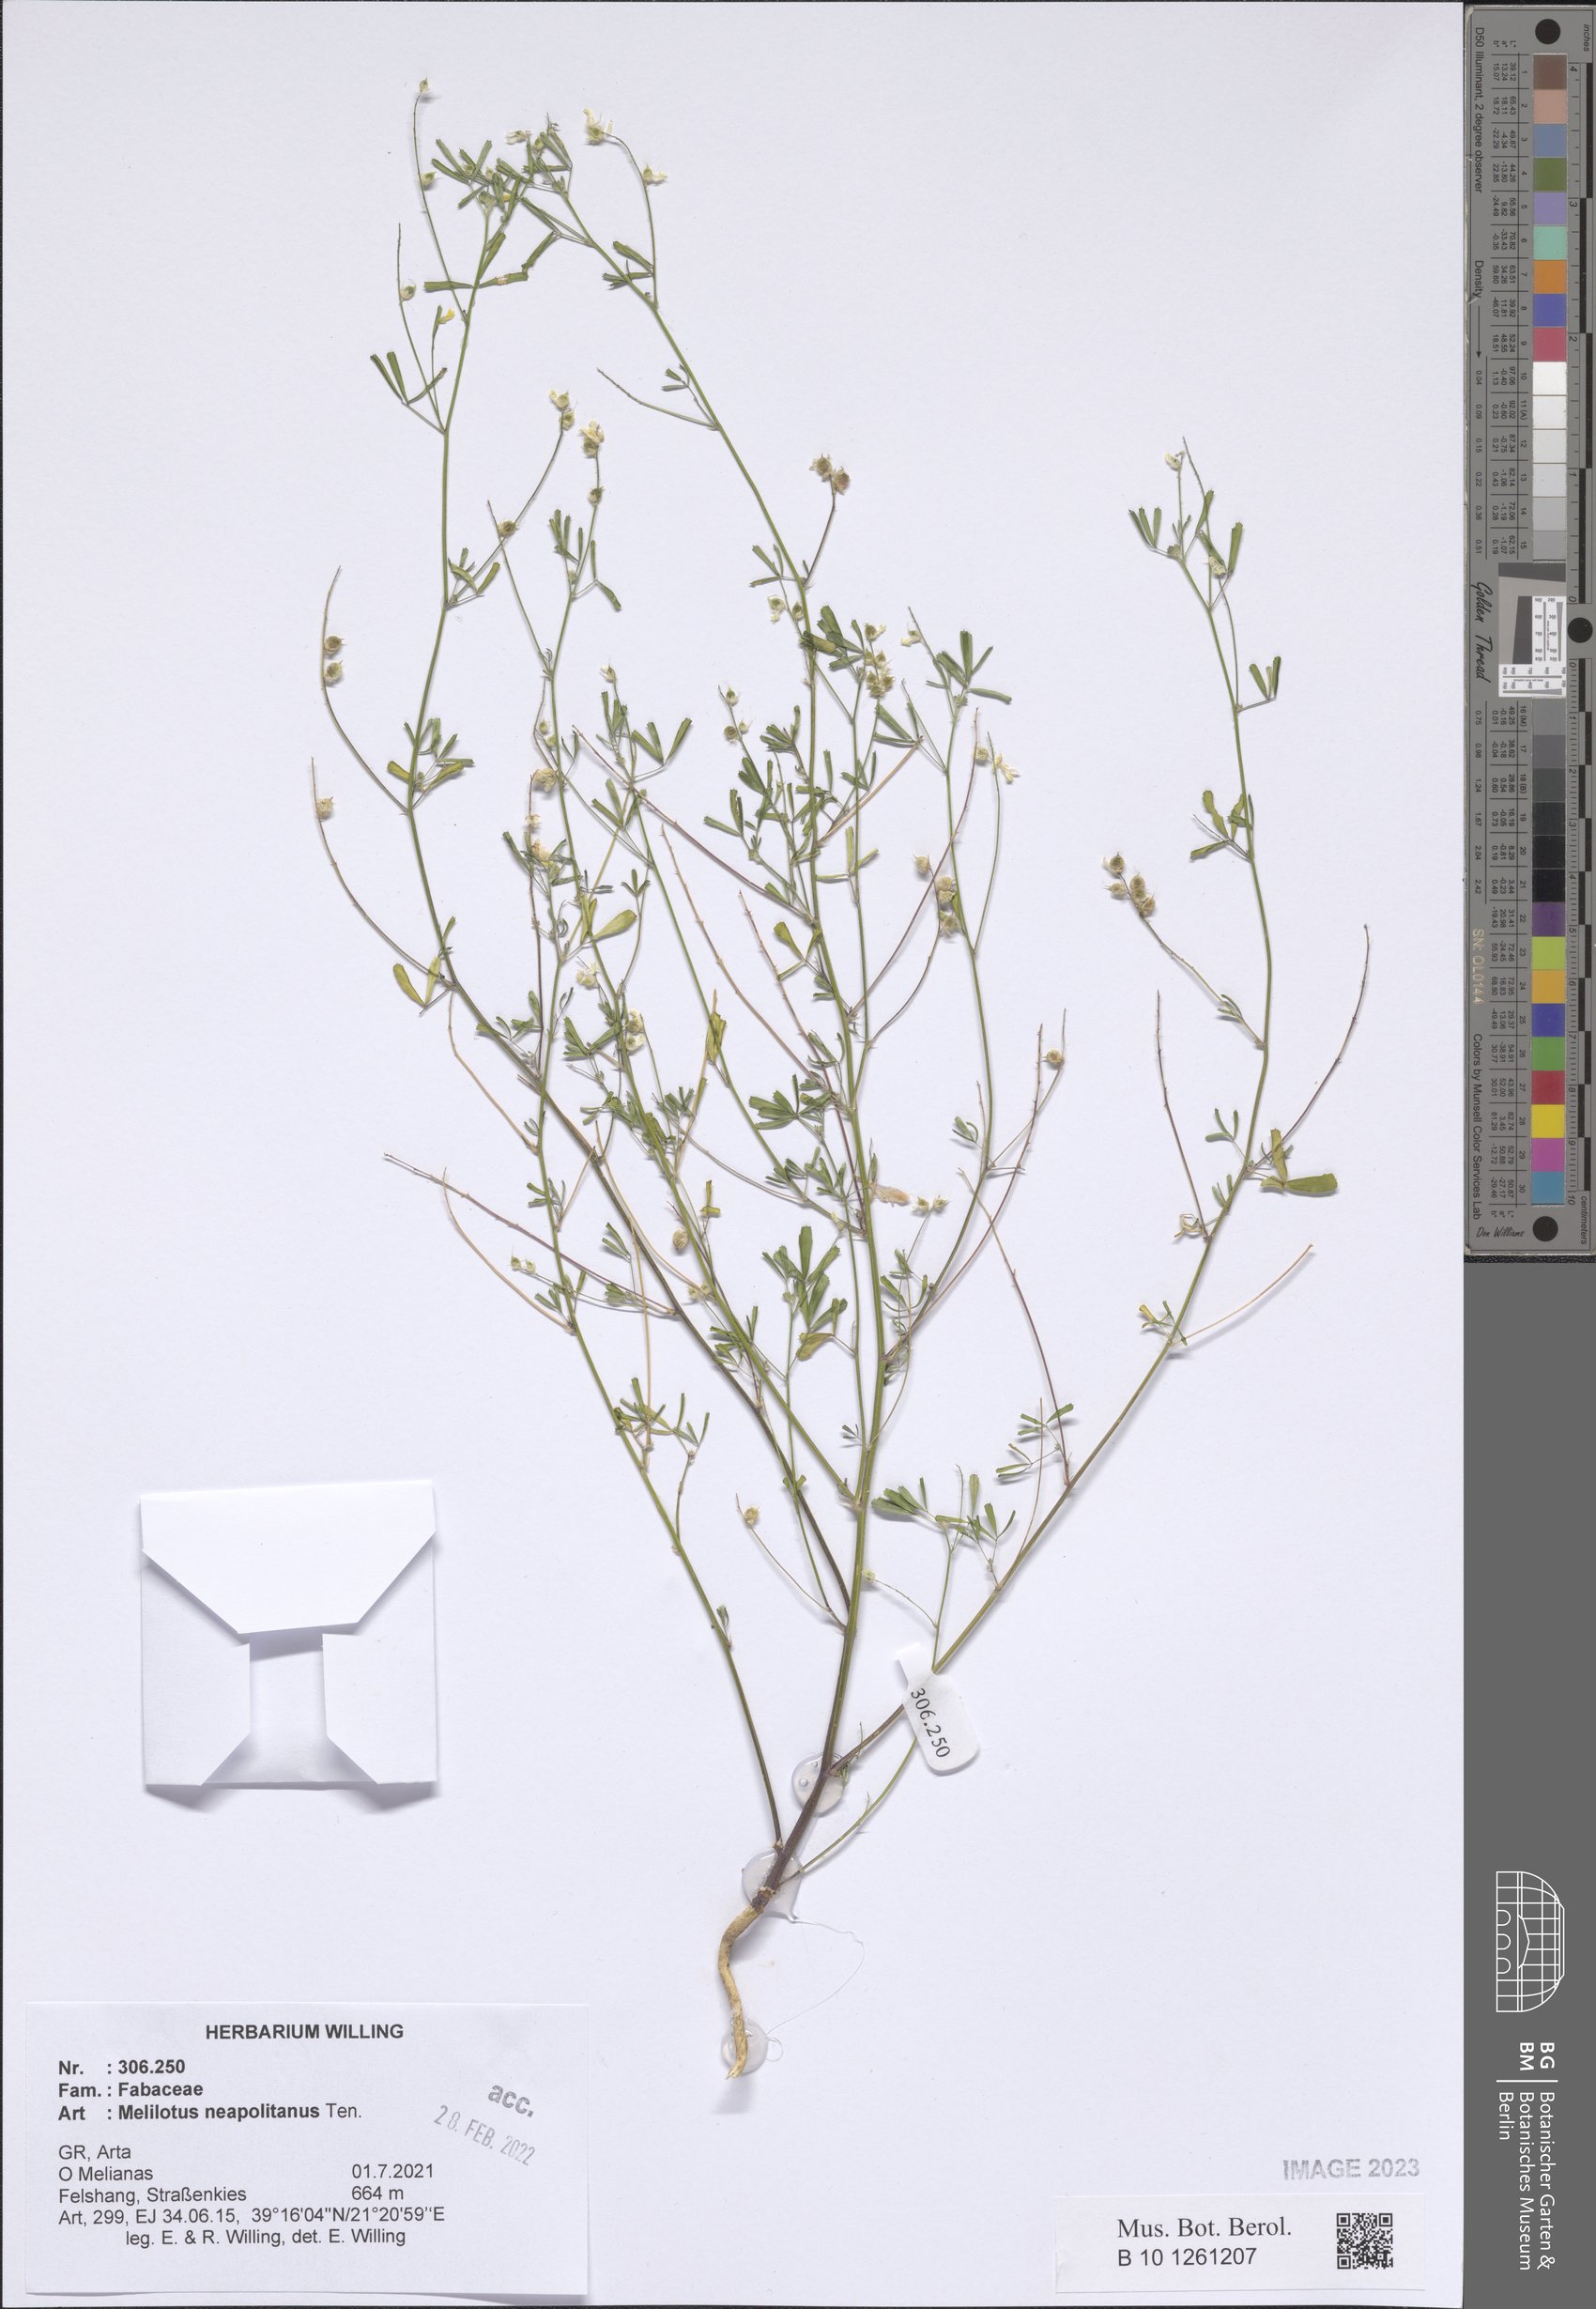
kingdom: Plantae
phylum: Tracheophyta
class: Magnoliopsida
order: Fabales
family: Fabaceae
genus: Melilotus
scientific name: Melilotus neapolitanus
